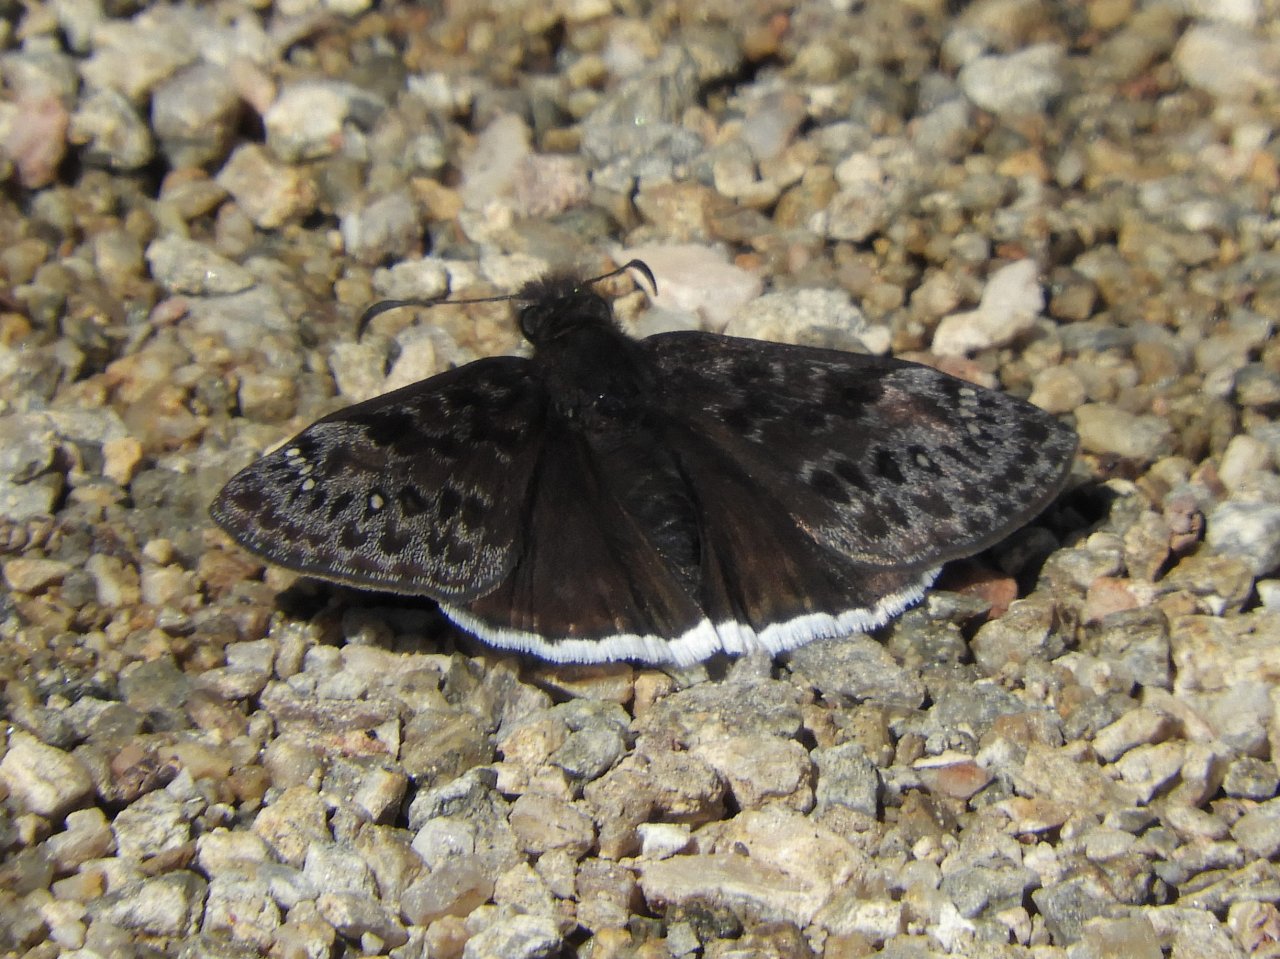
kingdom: Animalia
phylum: Arthropoda
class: Insecta
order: Lepidoptera
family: Hesperiidae
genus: Erynnis
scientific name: Erynnis funeralis
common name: Funereal Duskywing
